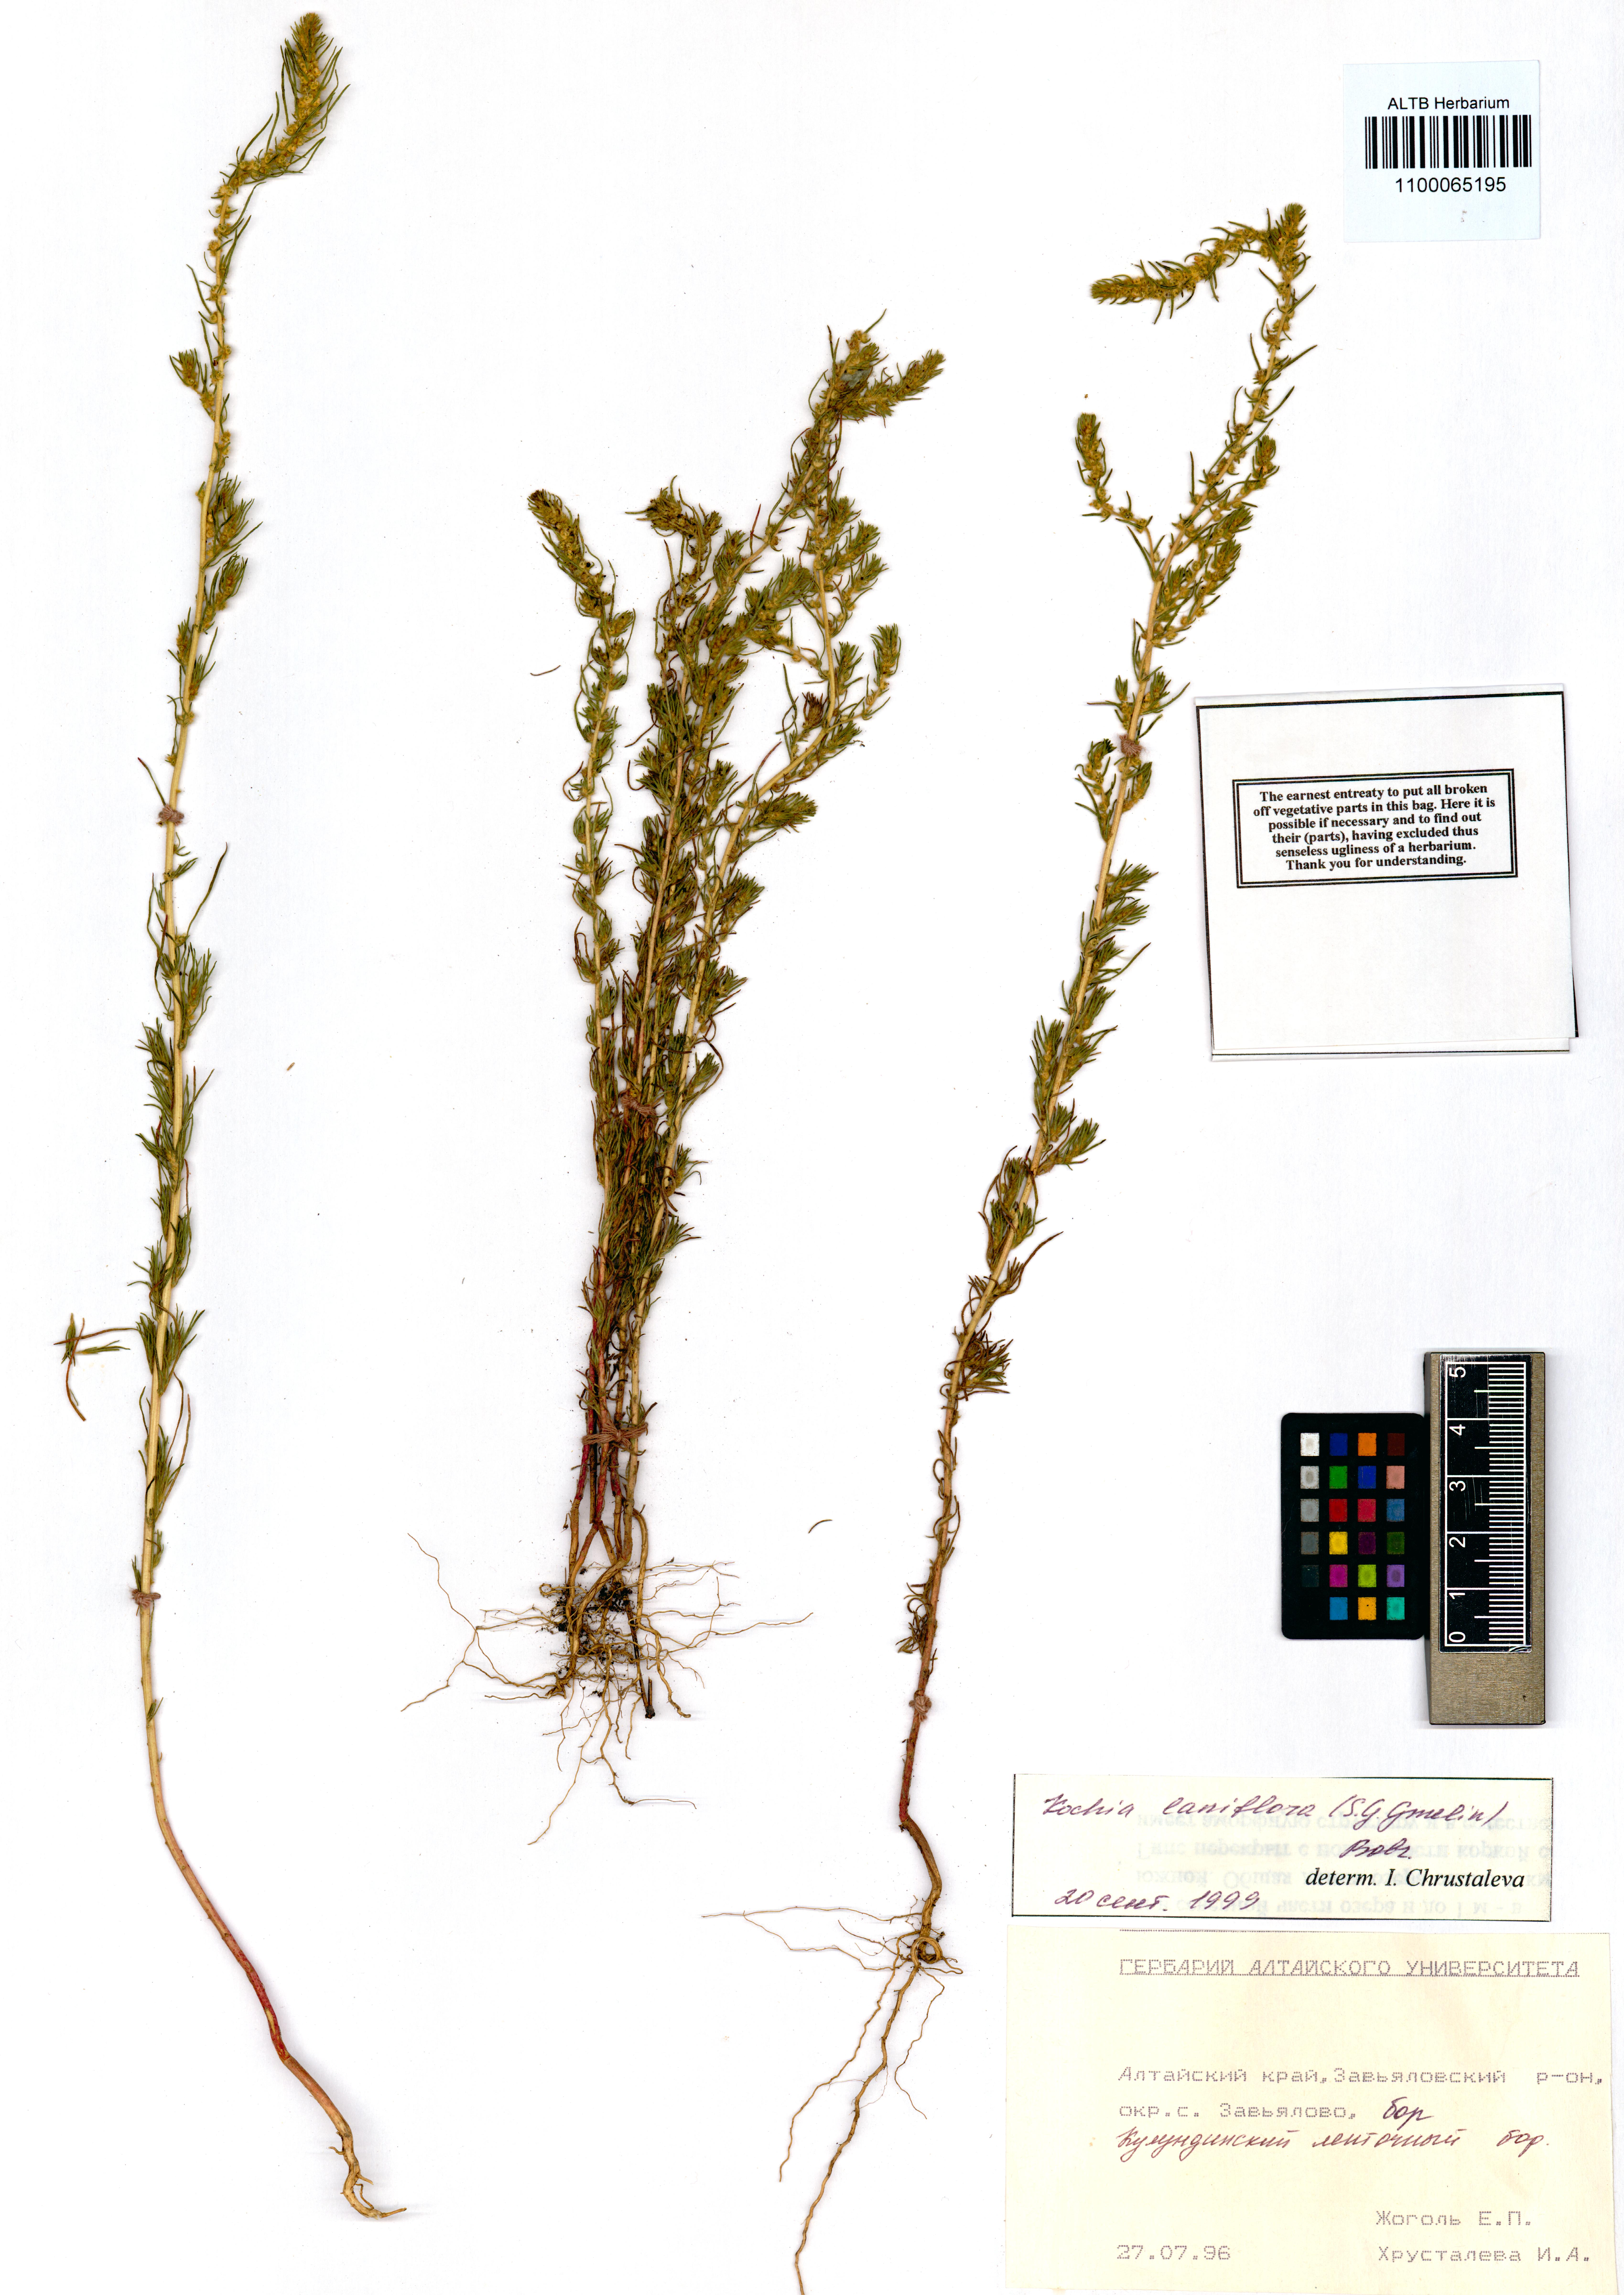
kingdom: Plantae
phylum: Tracheophyta
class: Magnoliopsida
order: Caryophyllales
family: Amaranthaceae
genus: Bassia
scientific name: Bassia laniflora
